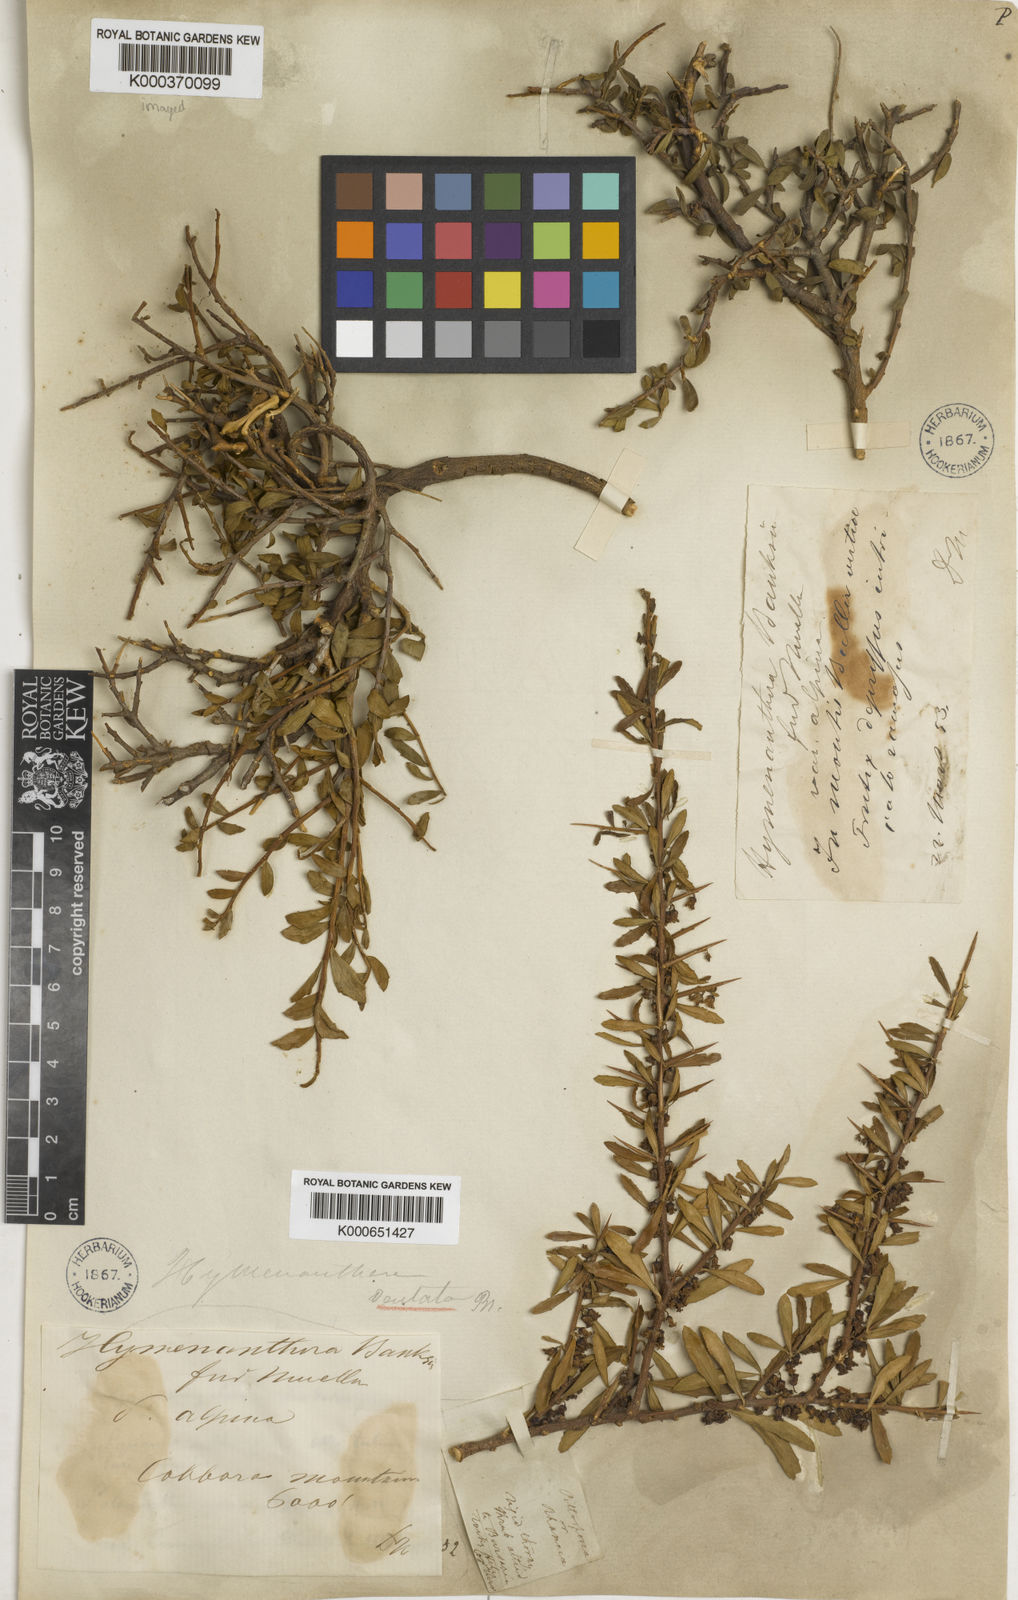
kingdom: Plantae
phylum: Tracheophyta
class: Magnoliopsida
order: Malpighiales
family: Violaceae
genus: Melicytus
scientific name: Melicytus
